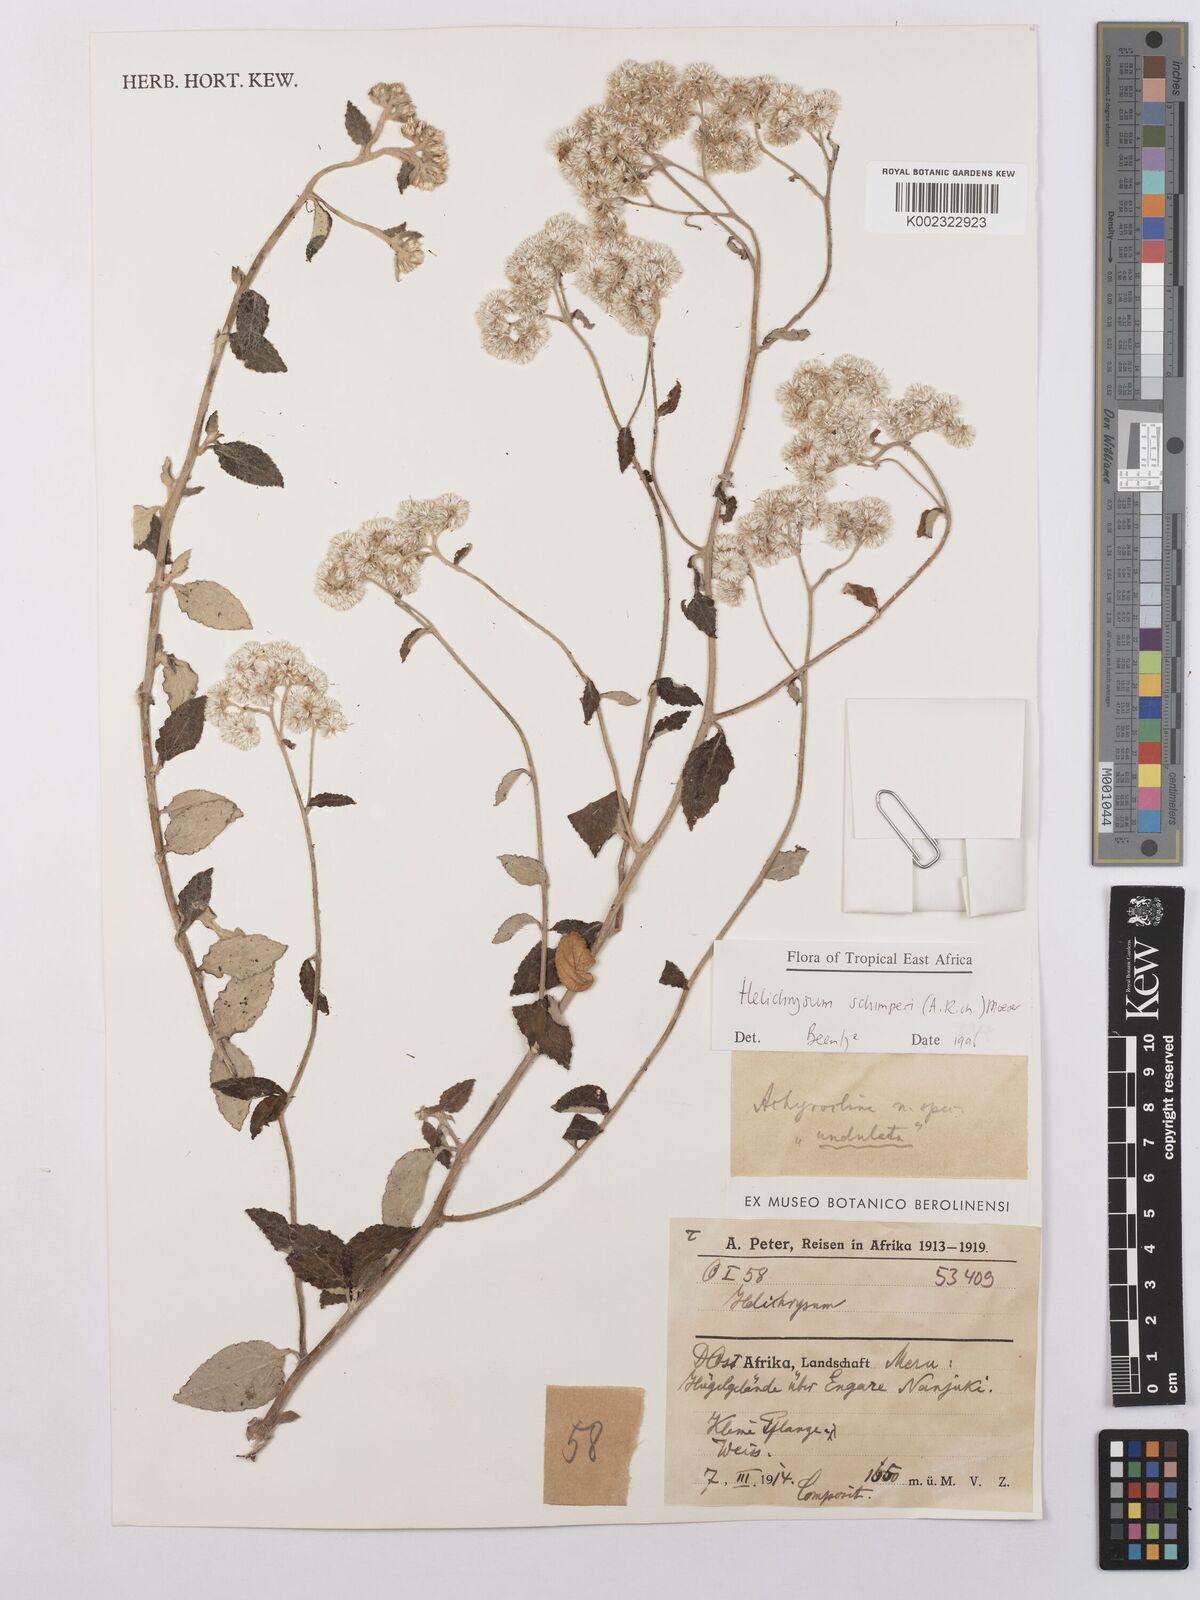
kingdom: Plantae
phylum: Tracheophyta
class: Magnoliopsida
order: Asterales
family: Asteraceae
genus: Helichrysum
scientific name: Helichrysum schimperi
